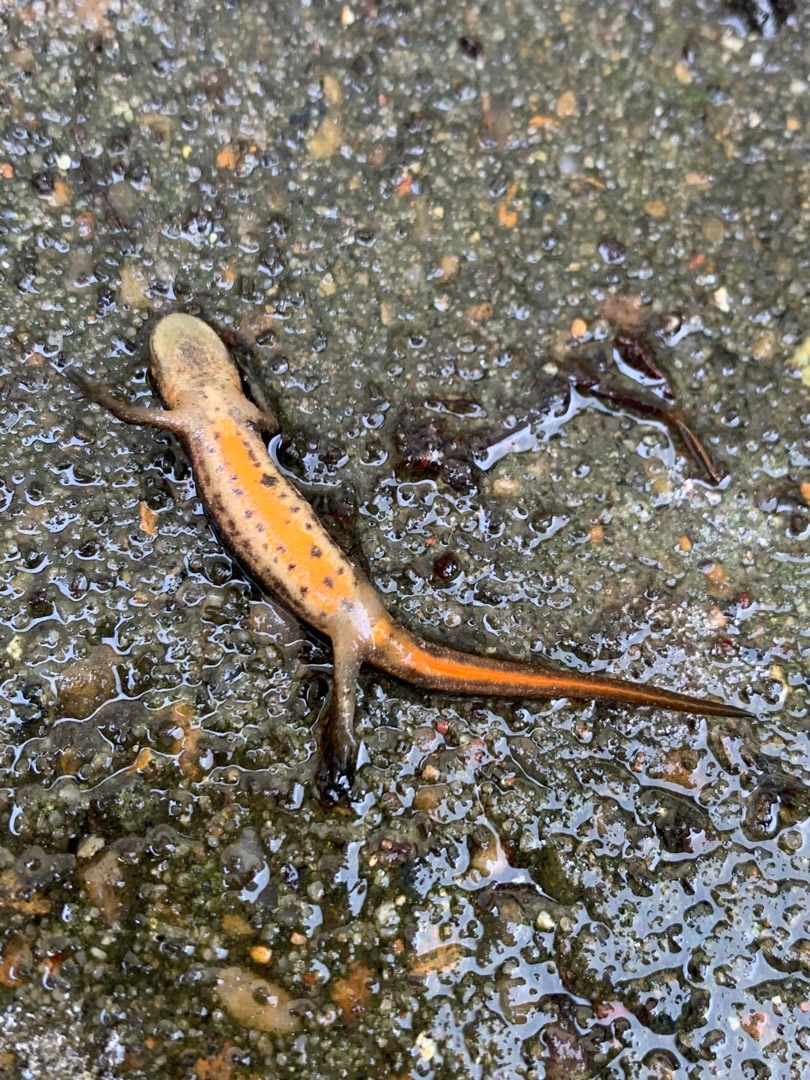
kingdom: Animalia
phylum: Chordata
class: Amphibia
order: Caudata
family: Salamandridae
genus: Lissotriton
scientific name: Lissotriton vulgaris
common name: Lille vandsalamander
